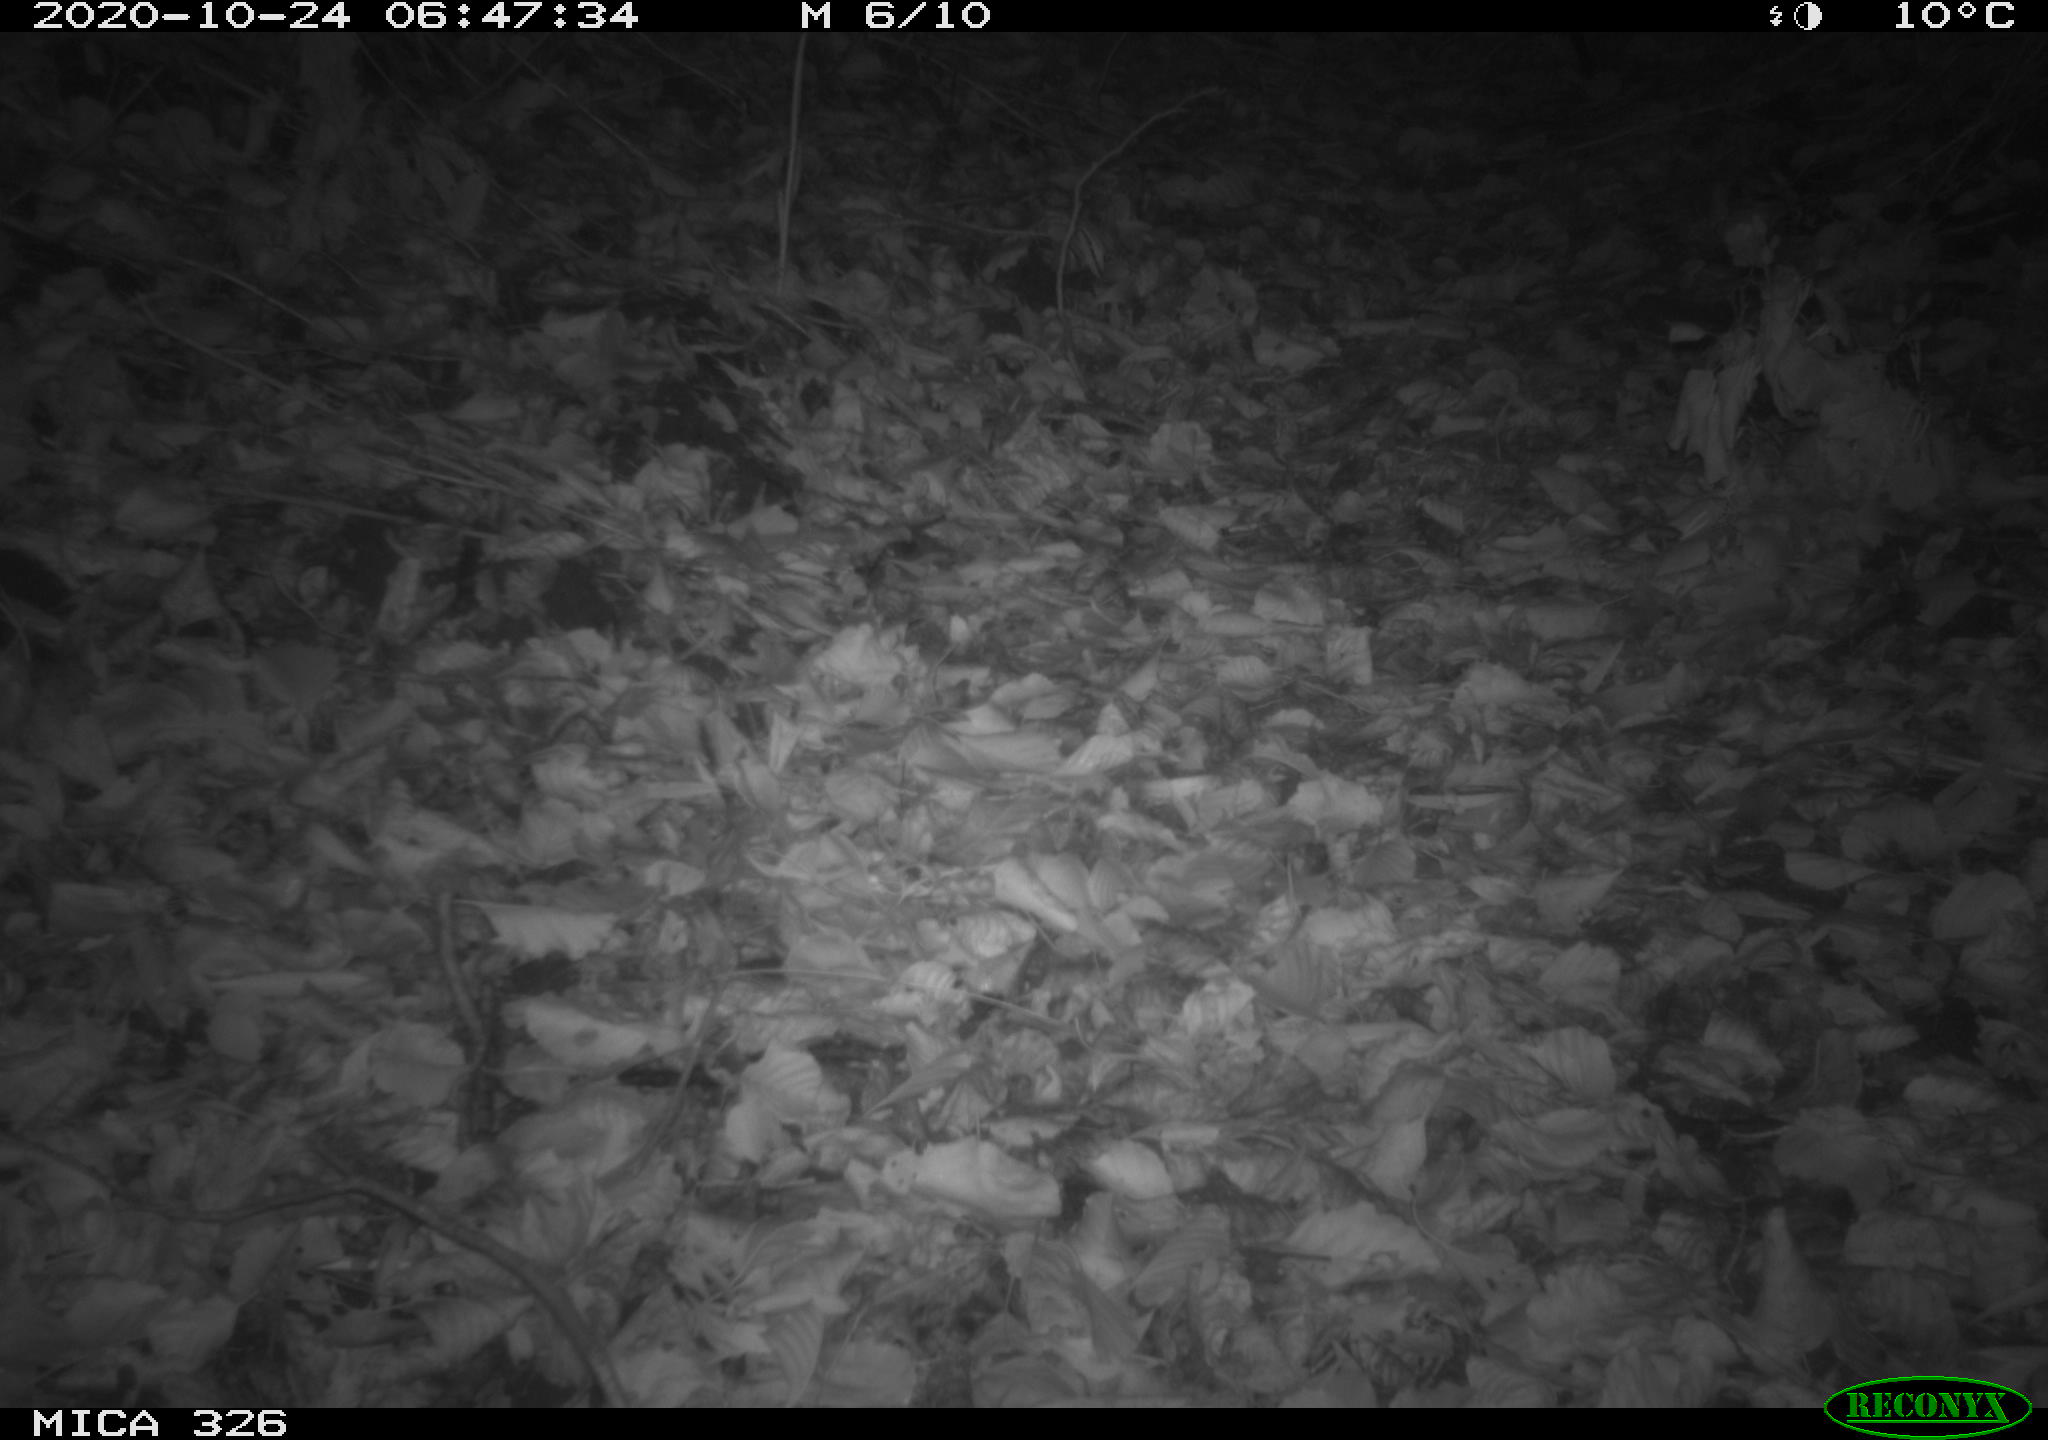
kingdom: Animalia
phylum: Chordata
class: Mammalia
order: Rodentia
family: Myocastoridae
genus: Myocastor
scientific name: Myocastor coypus
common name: Coypu
